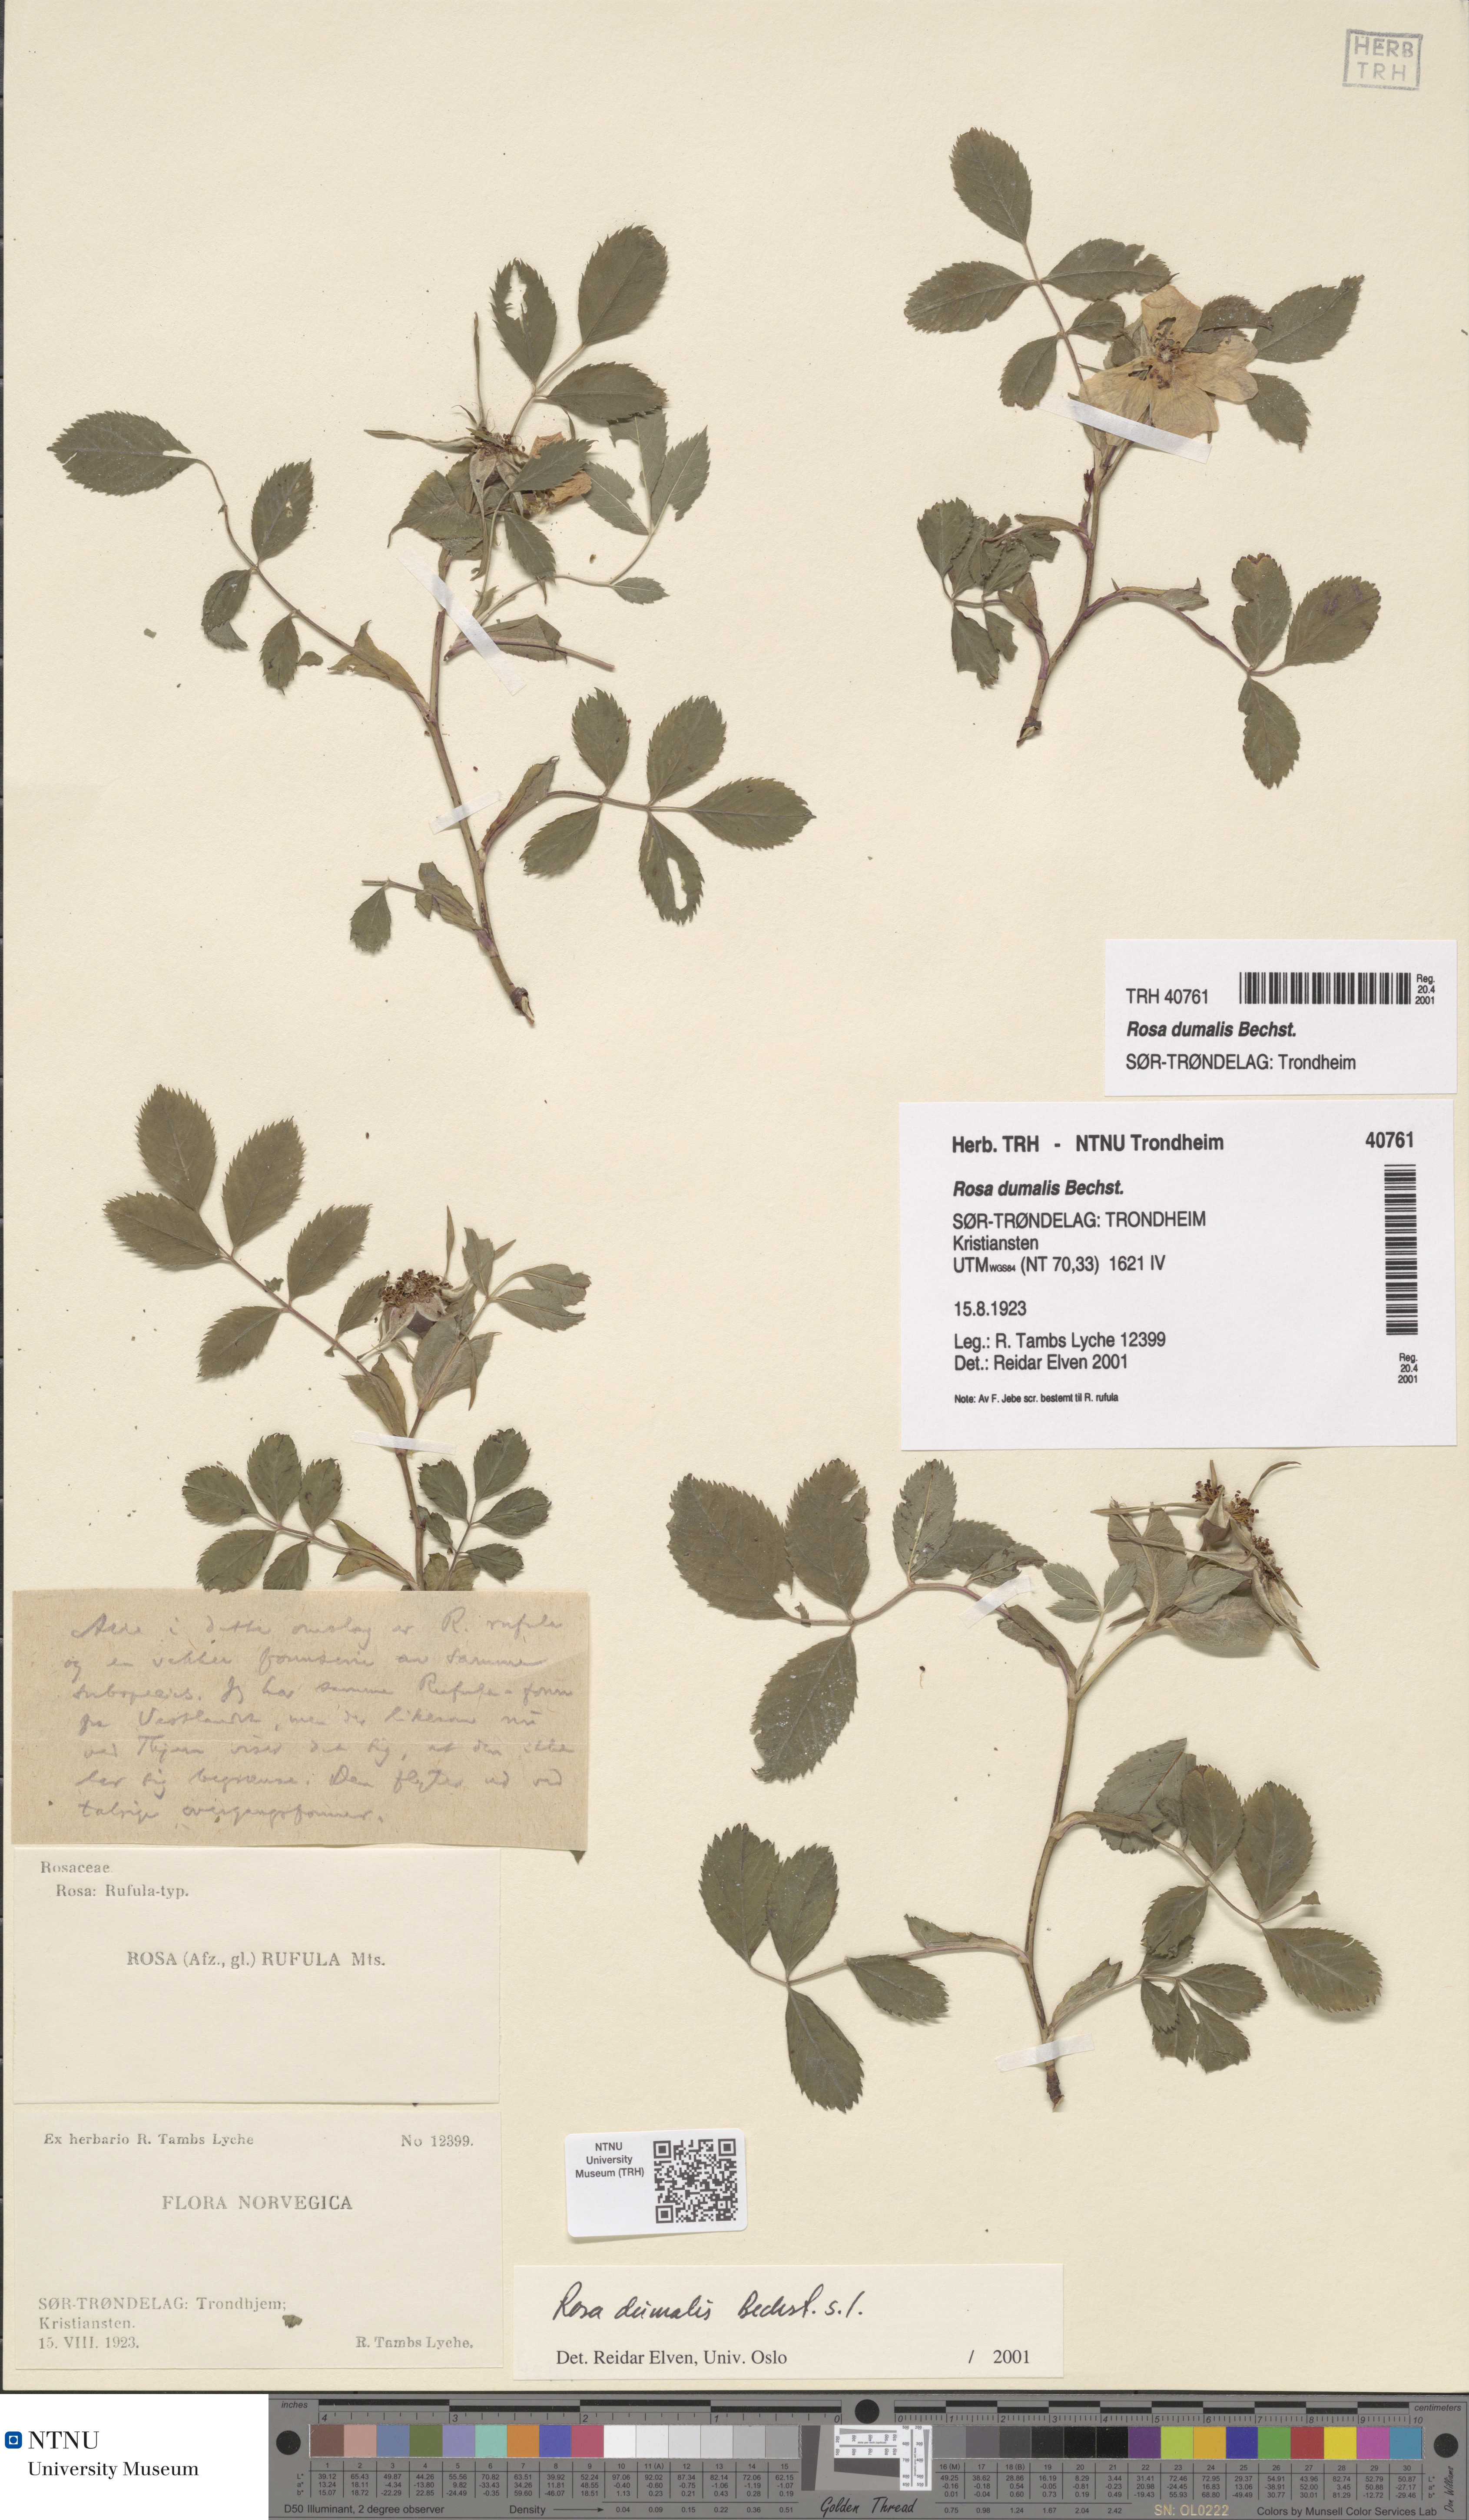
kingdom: Plantae
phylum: Tracheophyta
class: Magnoliopsida
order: Rosales
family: Rosaceae
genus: Rosa
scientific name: Rosa dumalis
